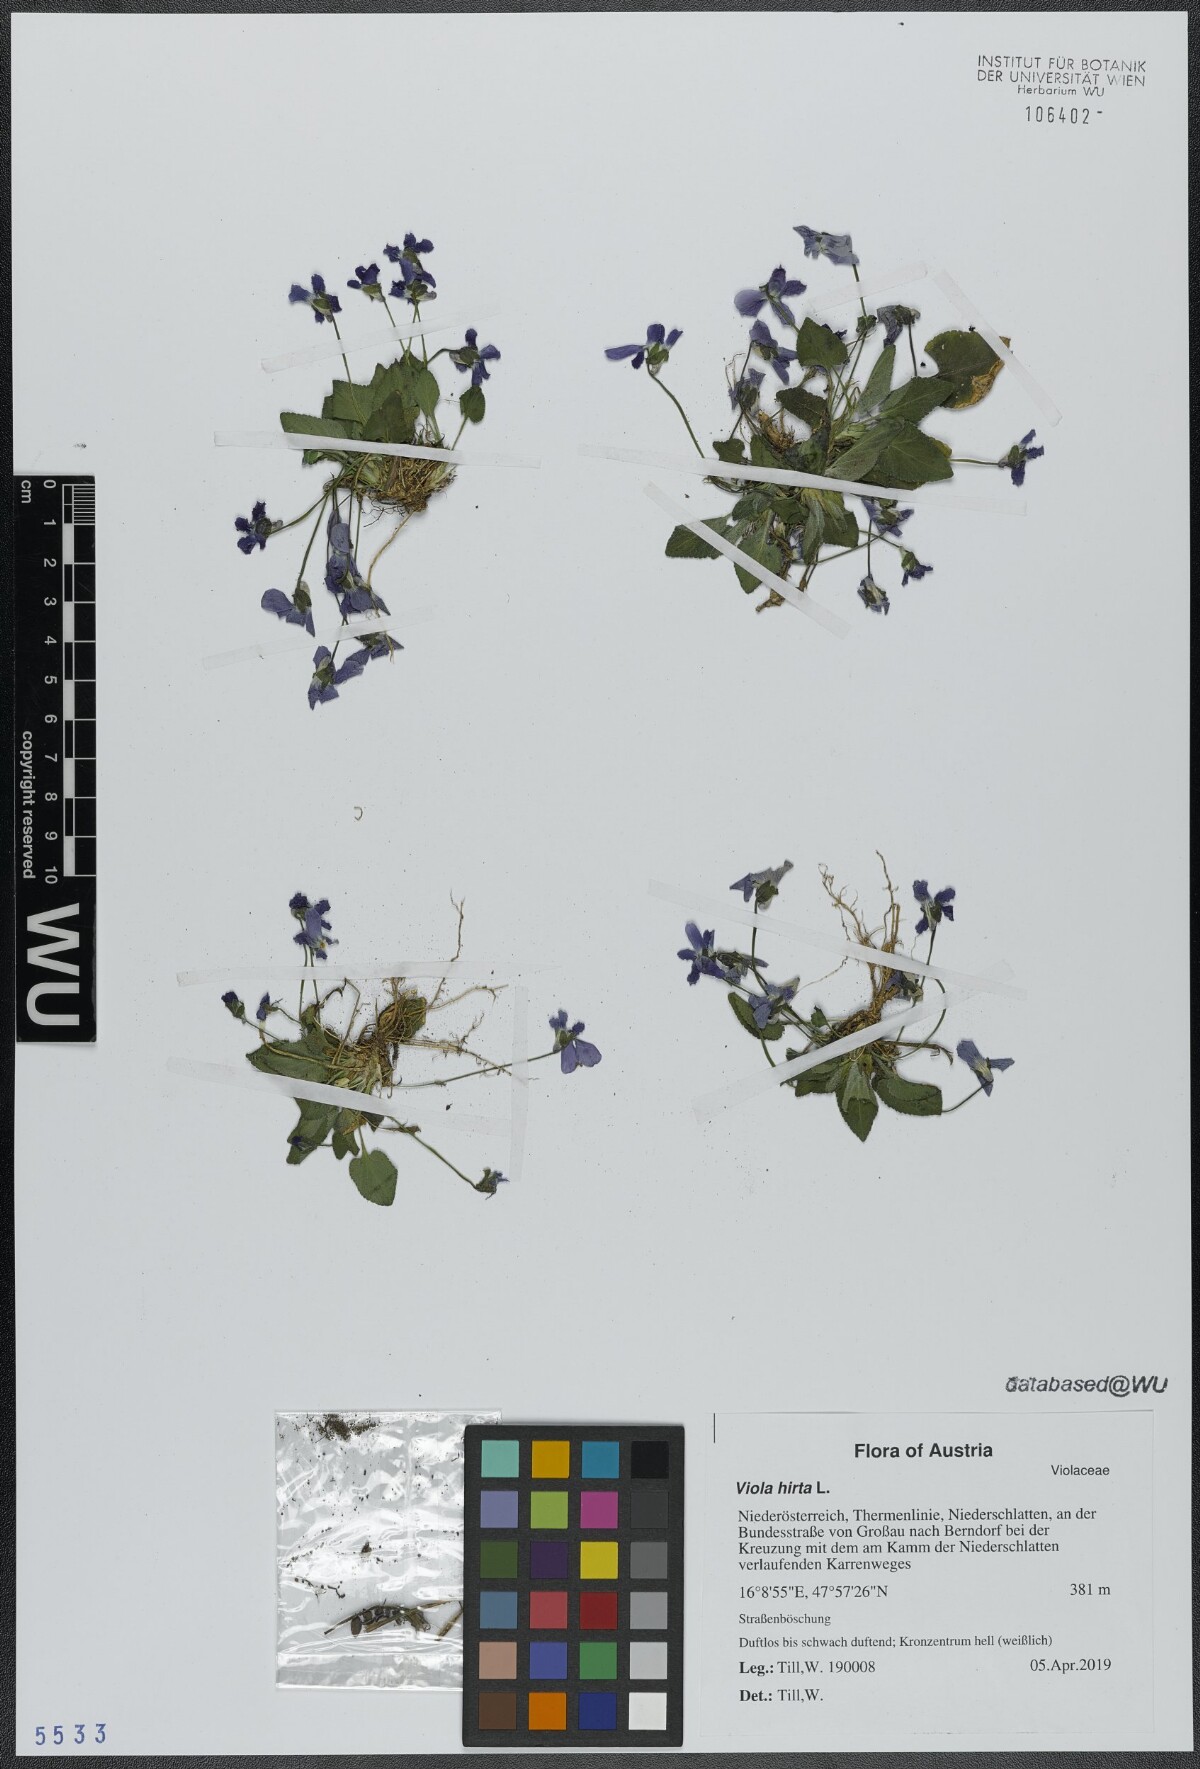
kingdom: Plantae
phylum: Tracheophyta
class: Magnoliopsida
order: Malpighiales
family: Violaceae
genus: Viola
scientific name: Viola hirta
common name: Hairy violet
